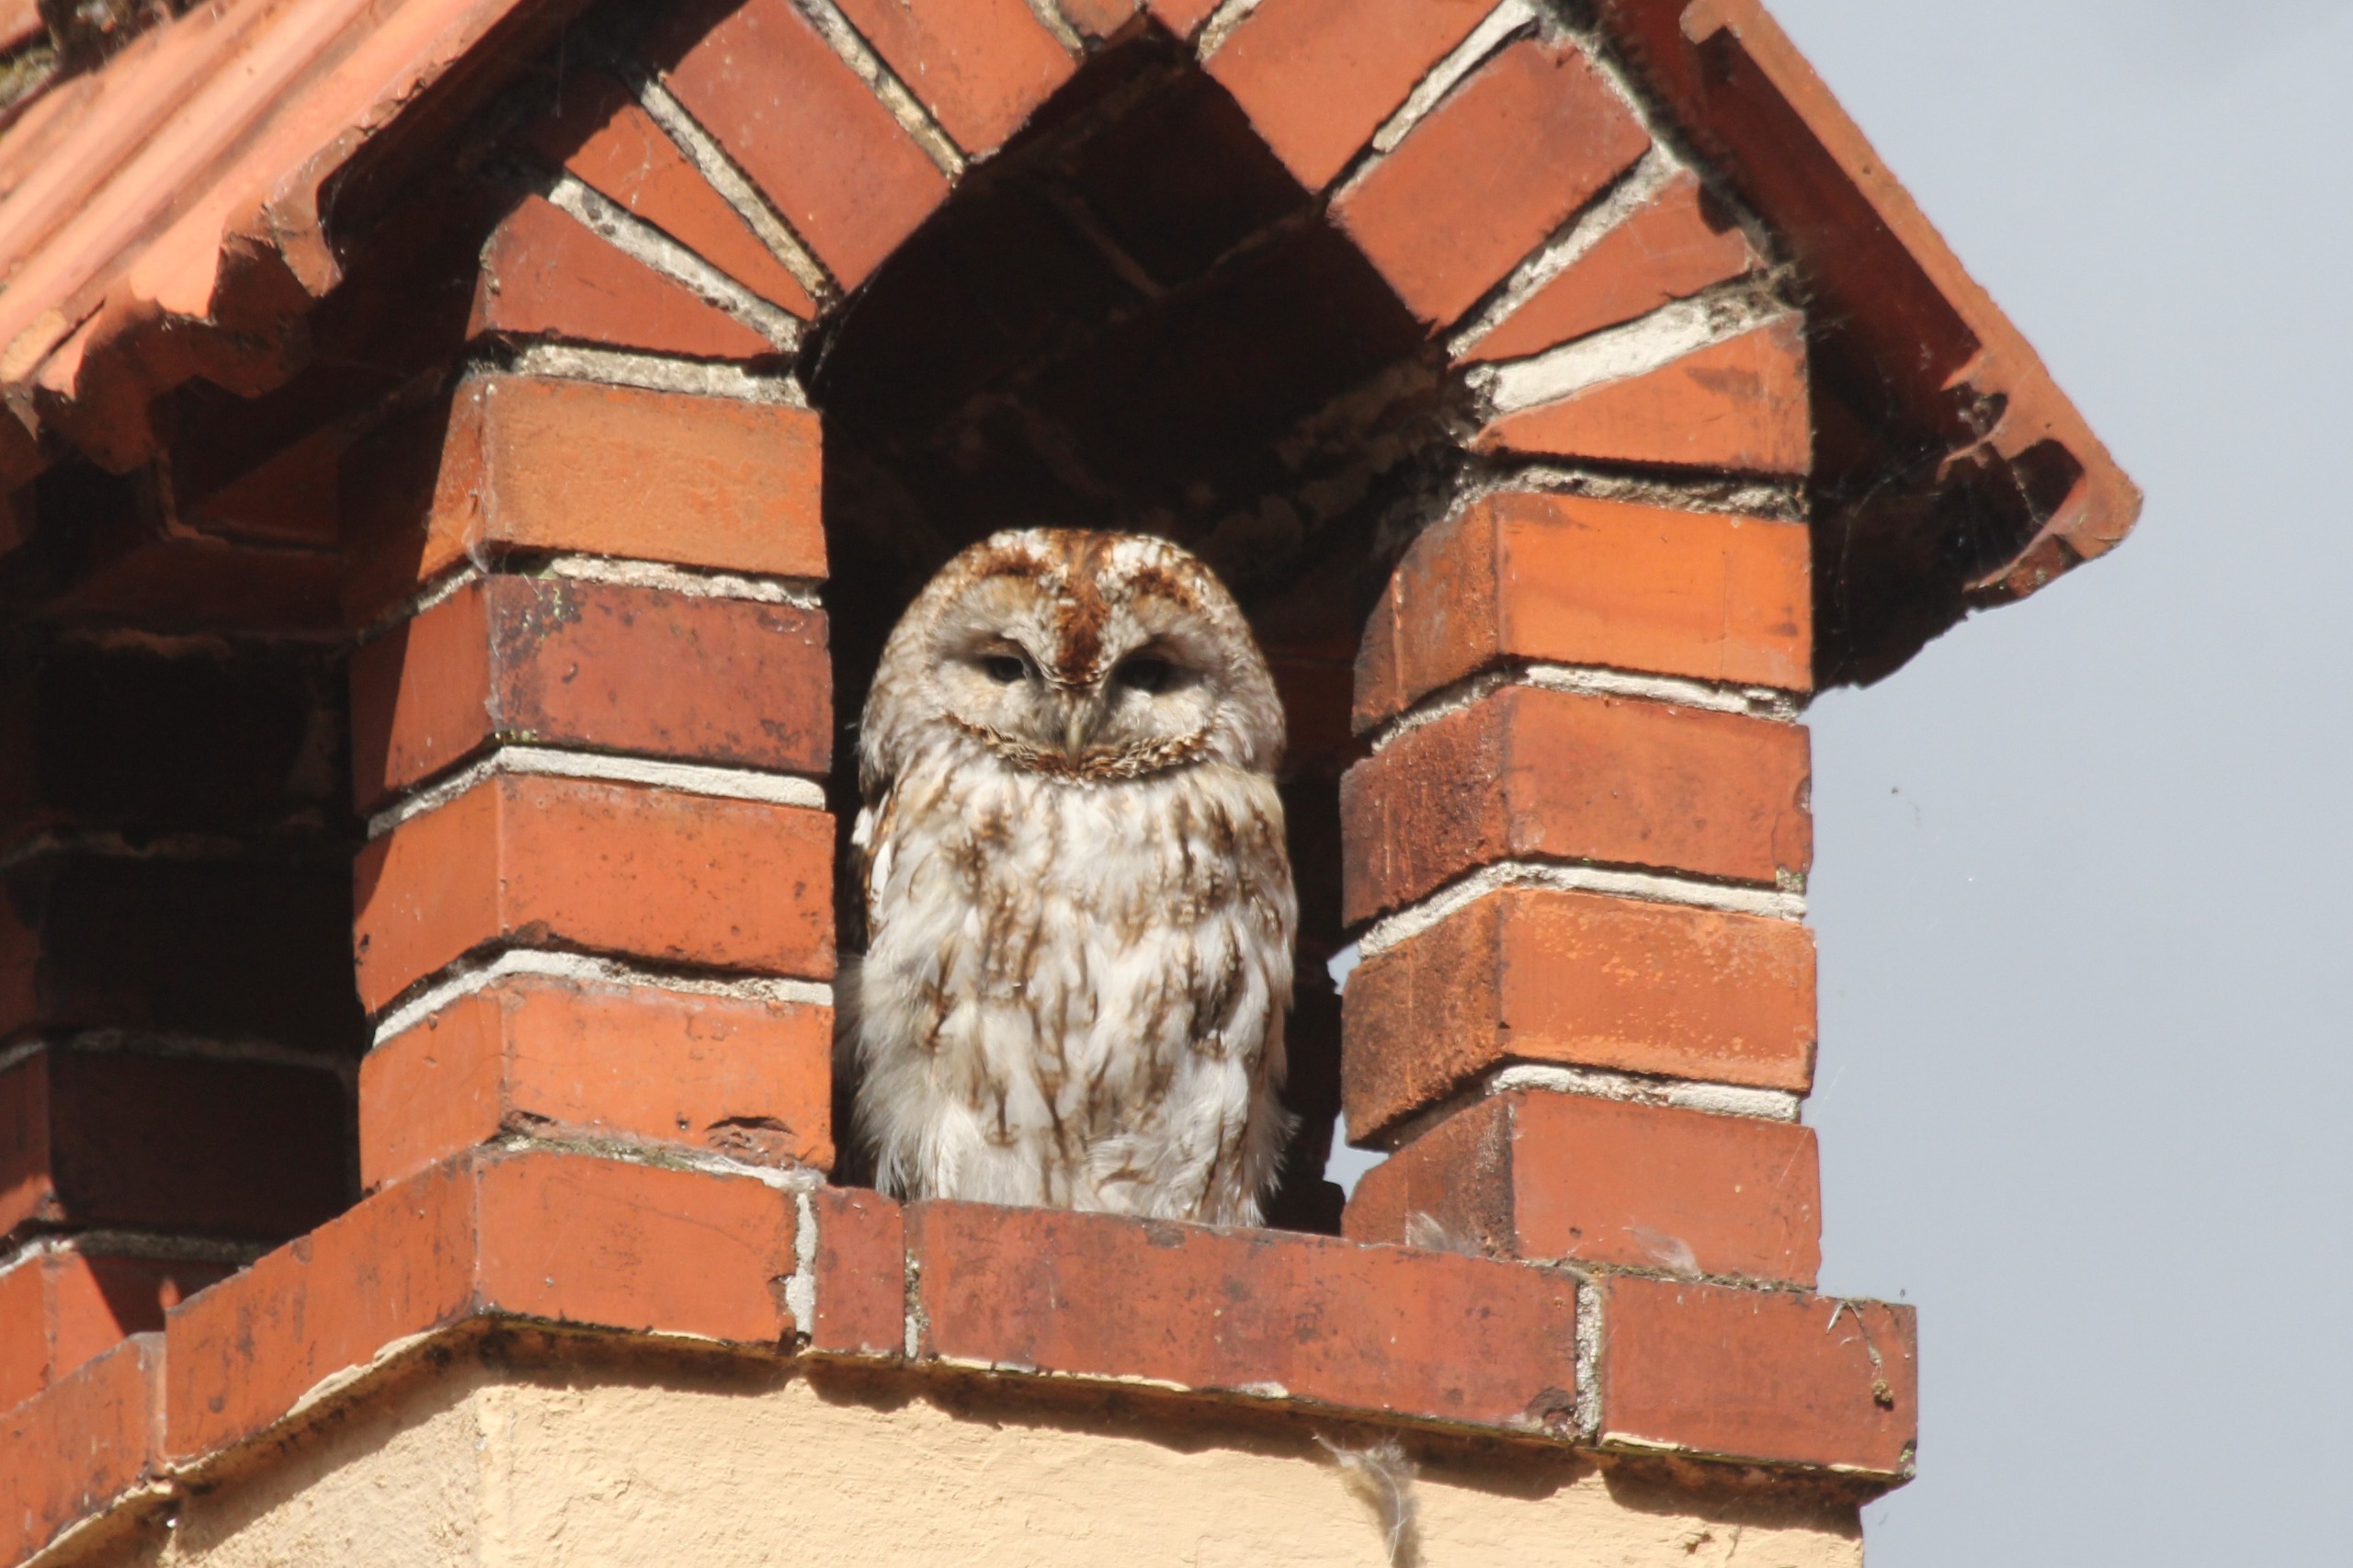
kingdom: Animalia
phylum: Chordata
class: Aves
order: Strigiformes
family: Strigidae
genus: Strix
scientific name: Strix aluco
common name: Natugle
